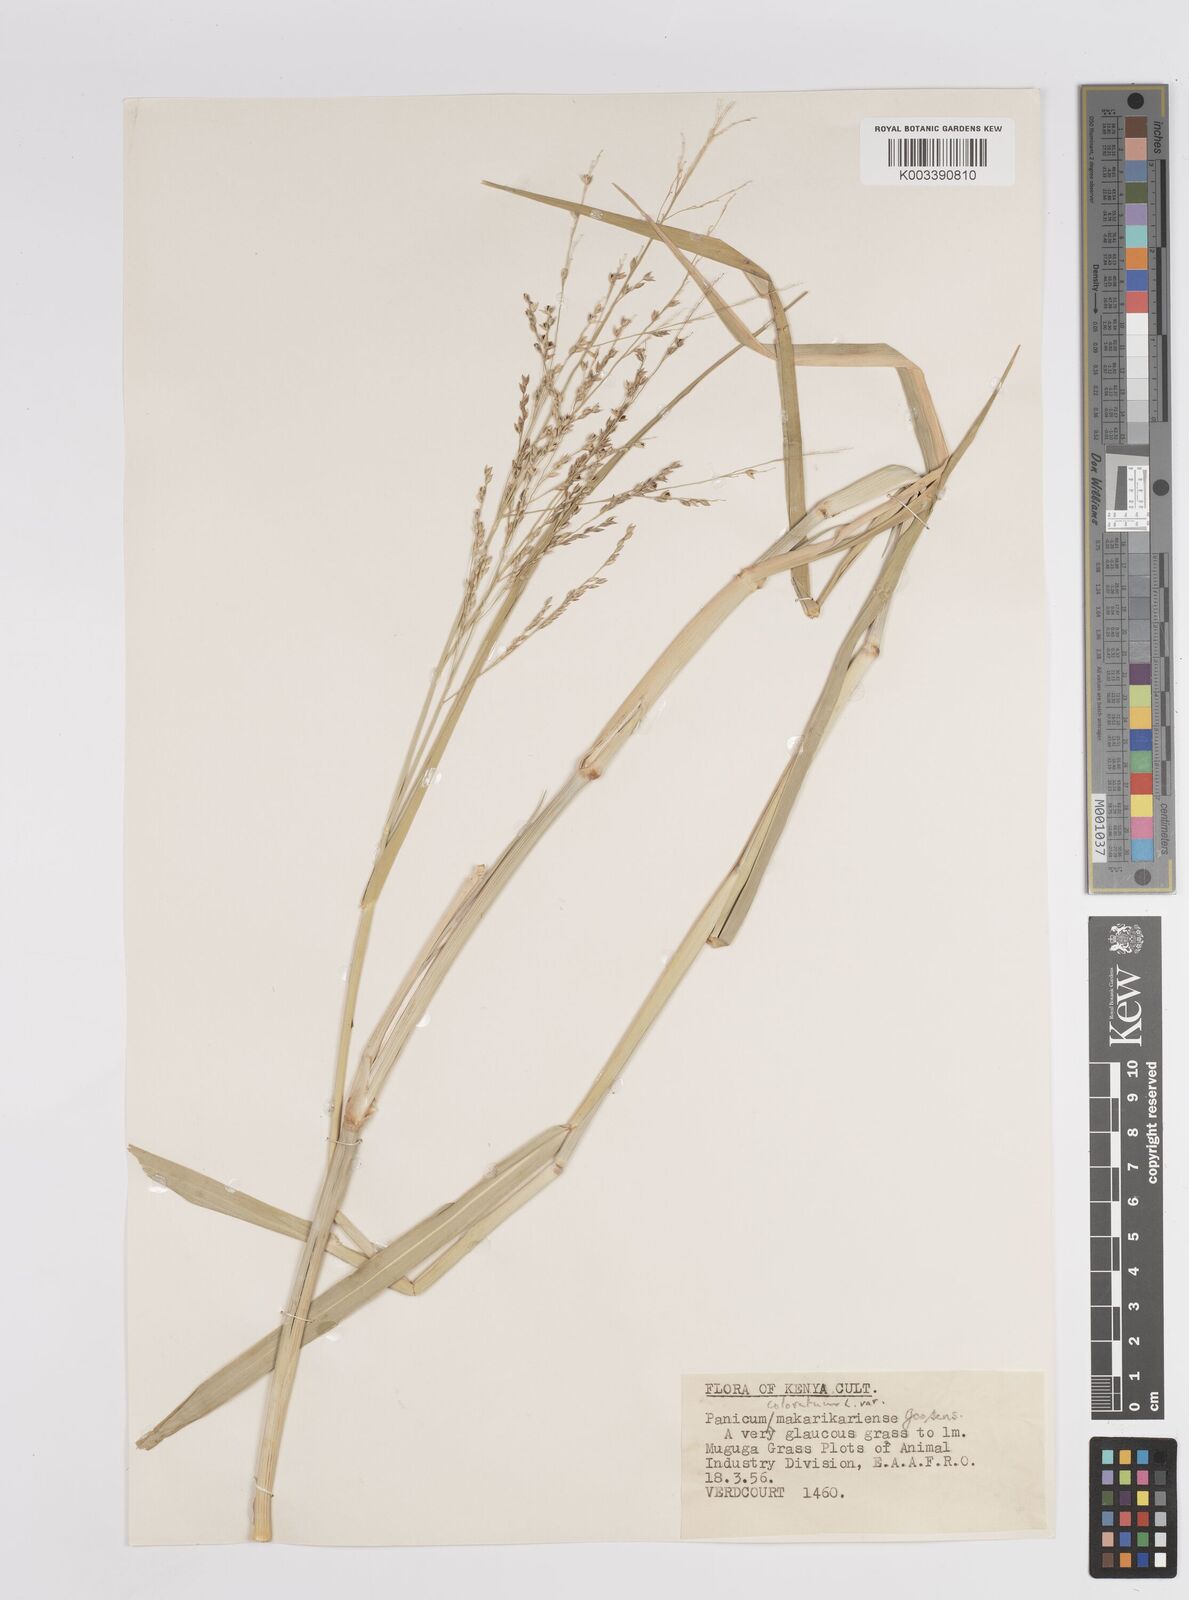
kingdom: Plantae
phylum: Tracheophyta
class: Liliopsida
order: Poales
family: Poaceae
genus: Panicum
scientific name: Panicum coloratum
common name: Kleingrass
